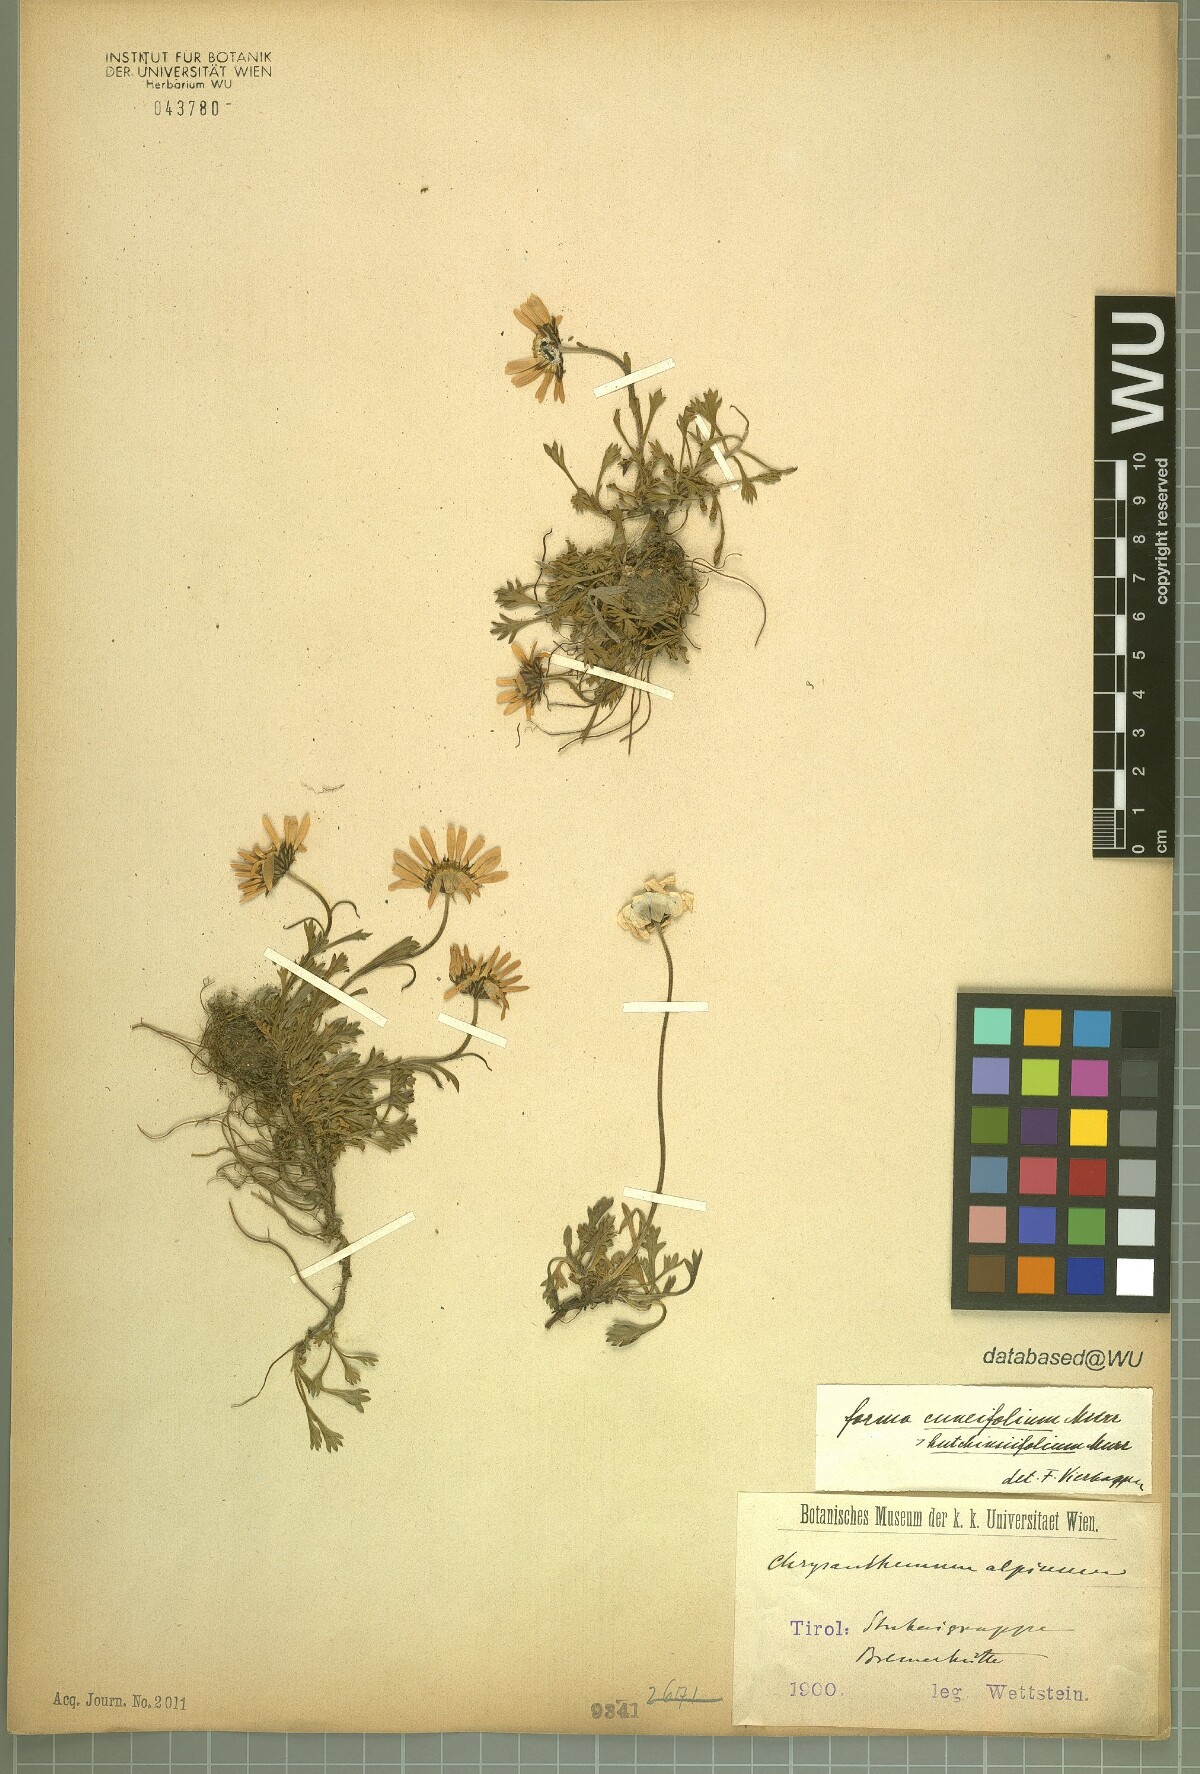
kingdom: Plantae
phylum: Tracheophyta
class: Magnoliopsida
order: Asterales
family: Asteraceae
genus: Leucanthemopsis
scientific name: Leucanthemopsis alpina
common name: Alpine moon daisy
